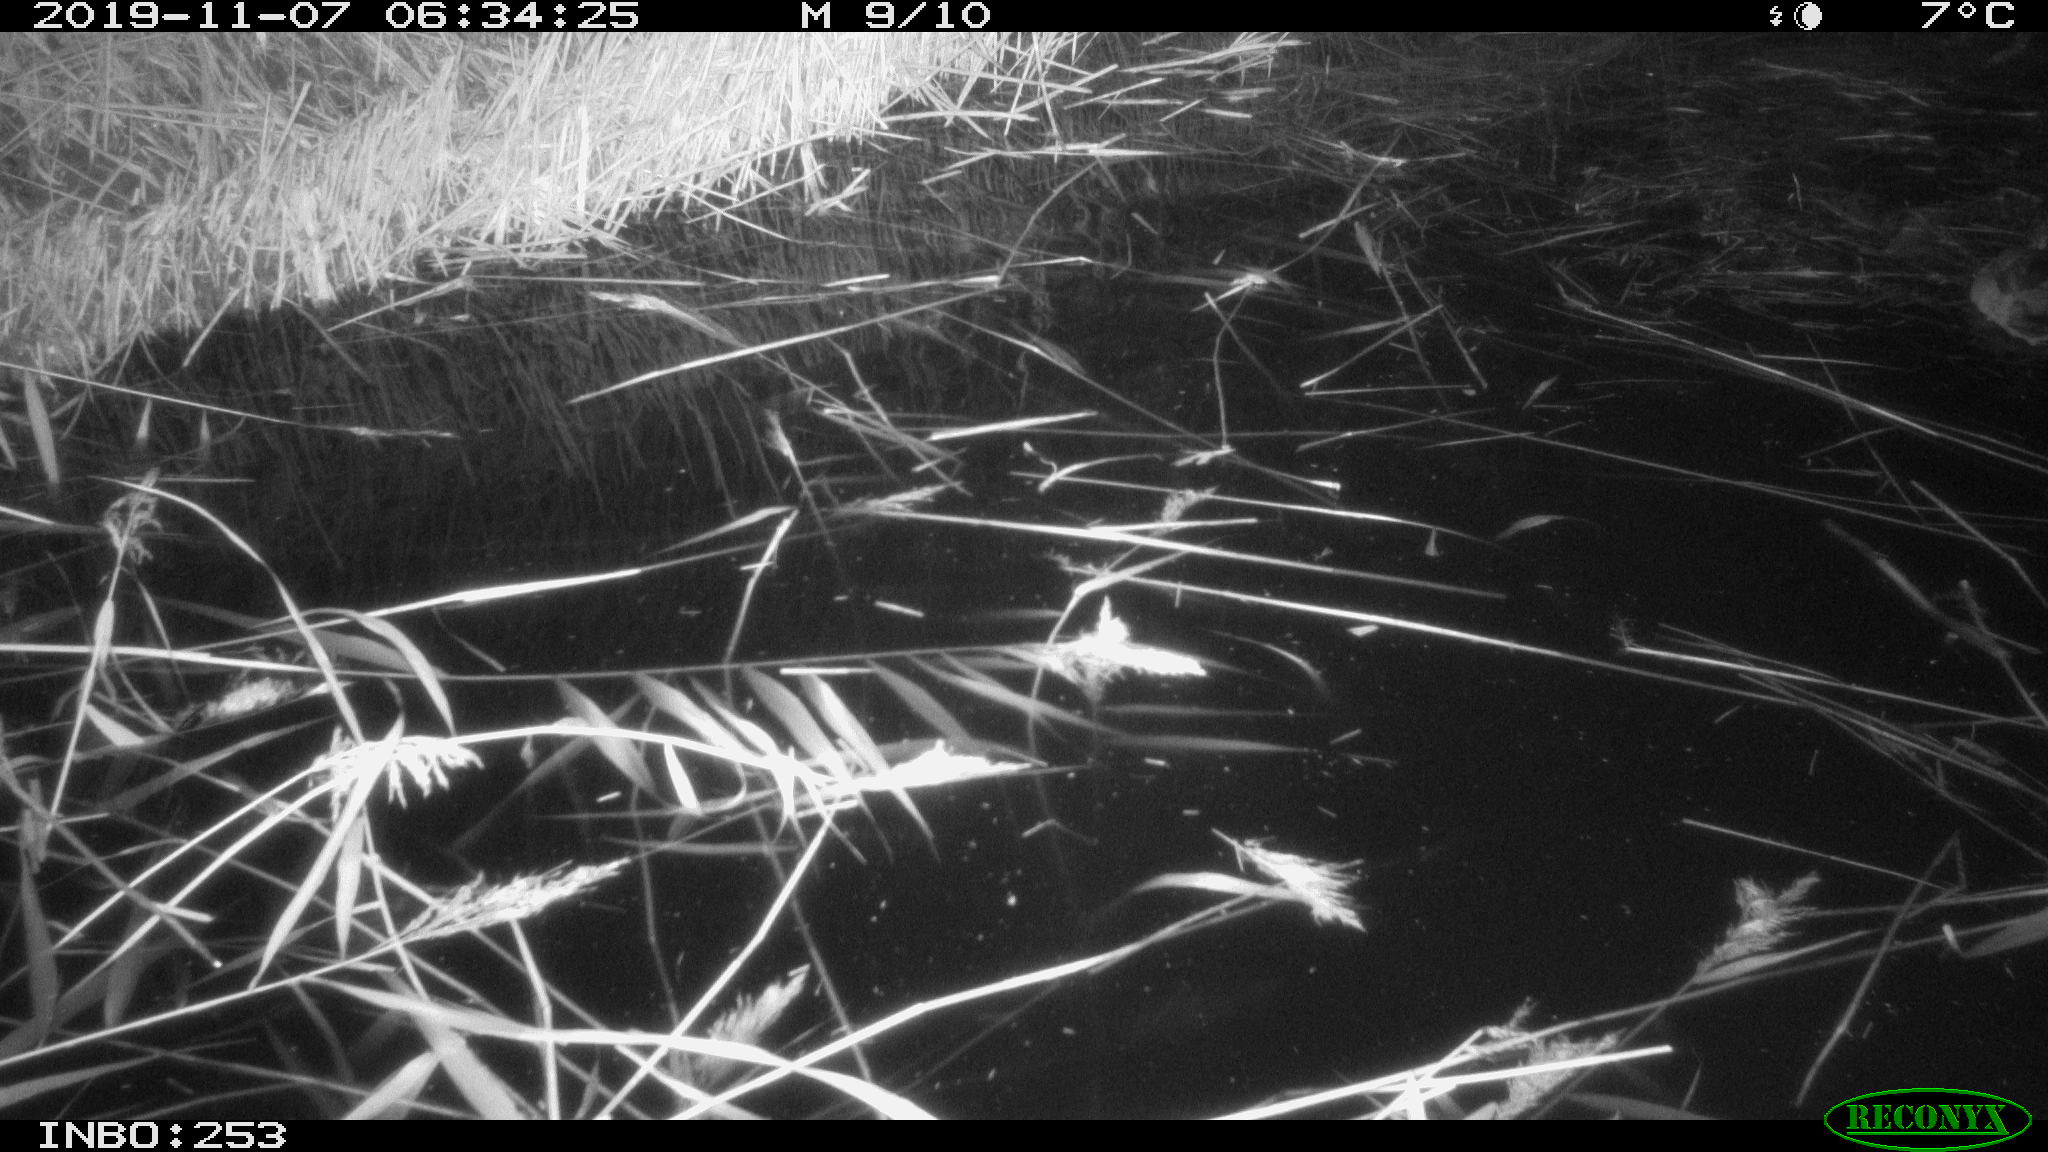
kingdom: Animalia
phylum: Chordata
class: Aves
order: Anseriformes
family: Anatidae
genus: Anas
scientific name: Anas platyrhynchos
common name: Mallard
